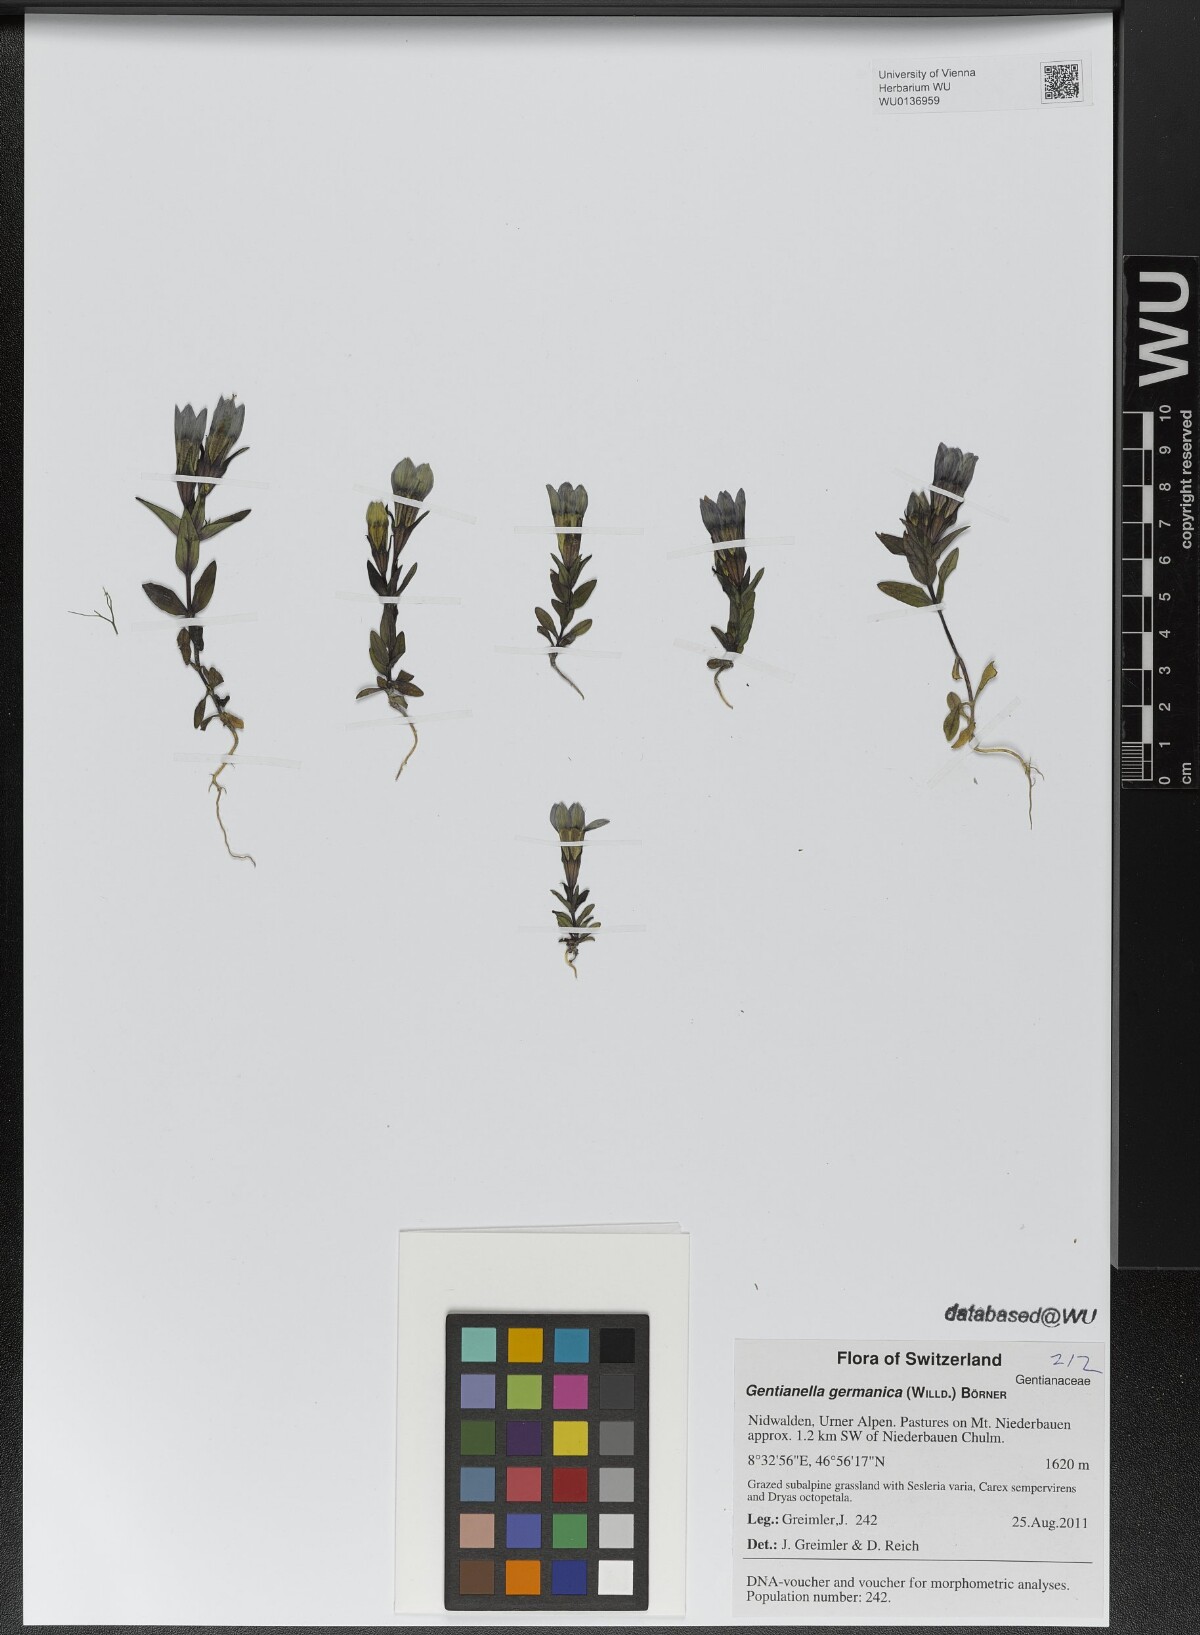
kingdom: Plantae
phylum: Tracheophyta
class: Magnoliopsida
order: Gentianales
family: Gentianaceae
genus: Gentianella
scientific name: Gentianella germanica
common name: Chiltern-gentian
